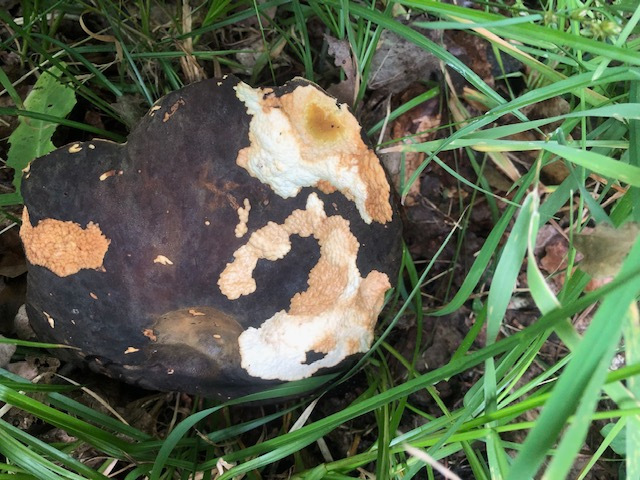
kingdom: Fungi
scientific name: Fungi
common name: bronze-rørhat
